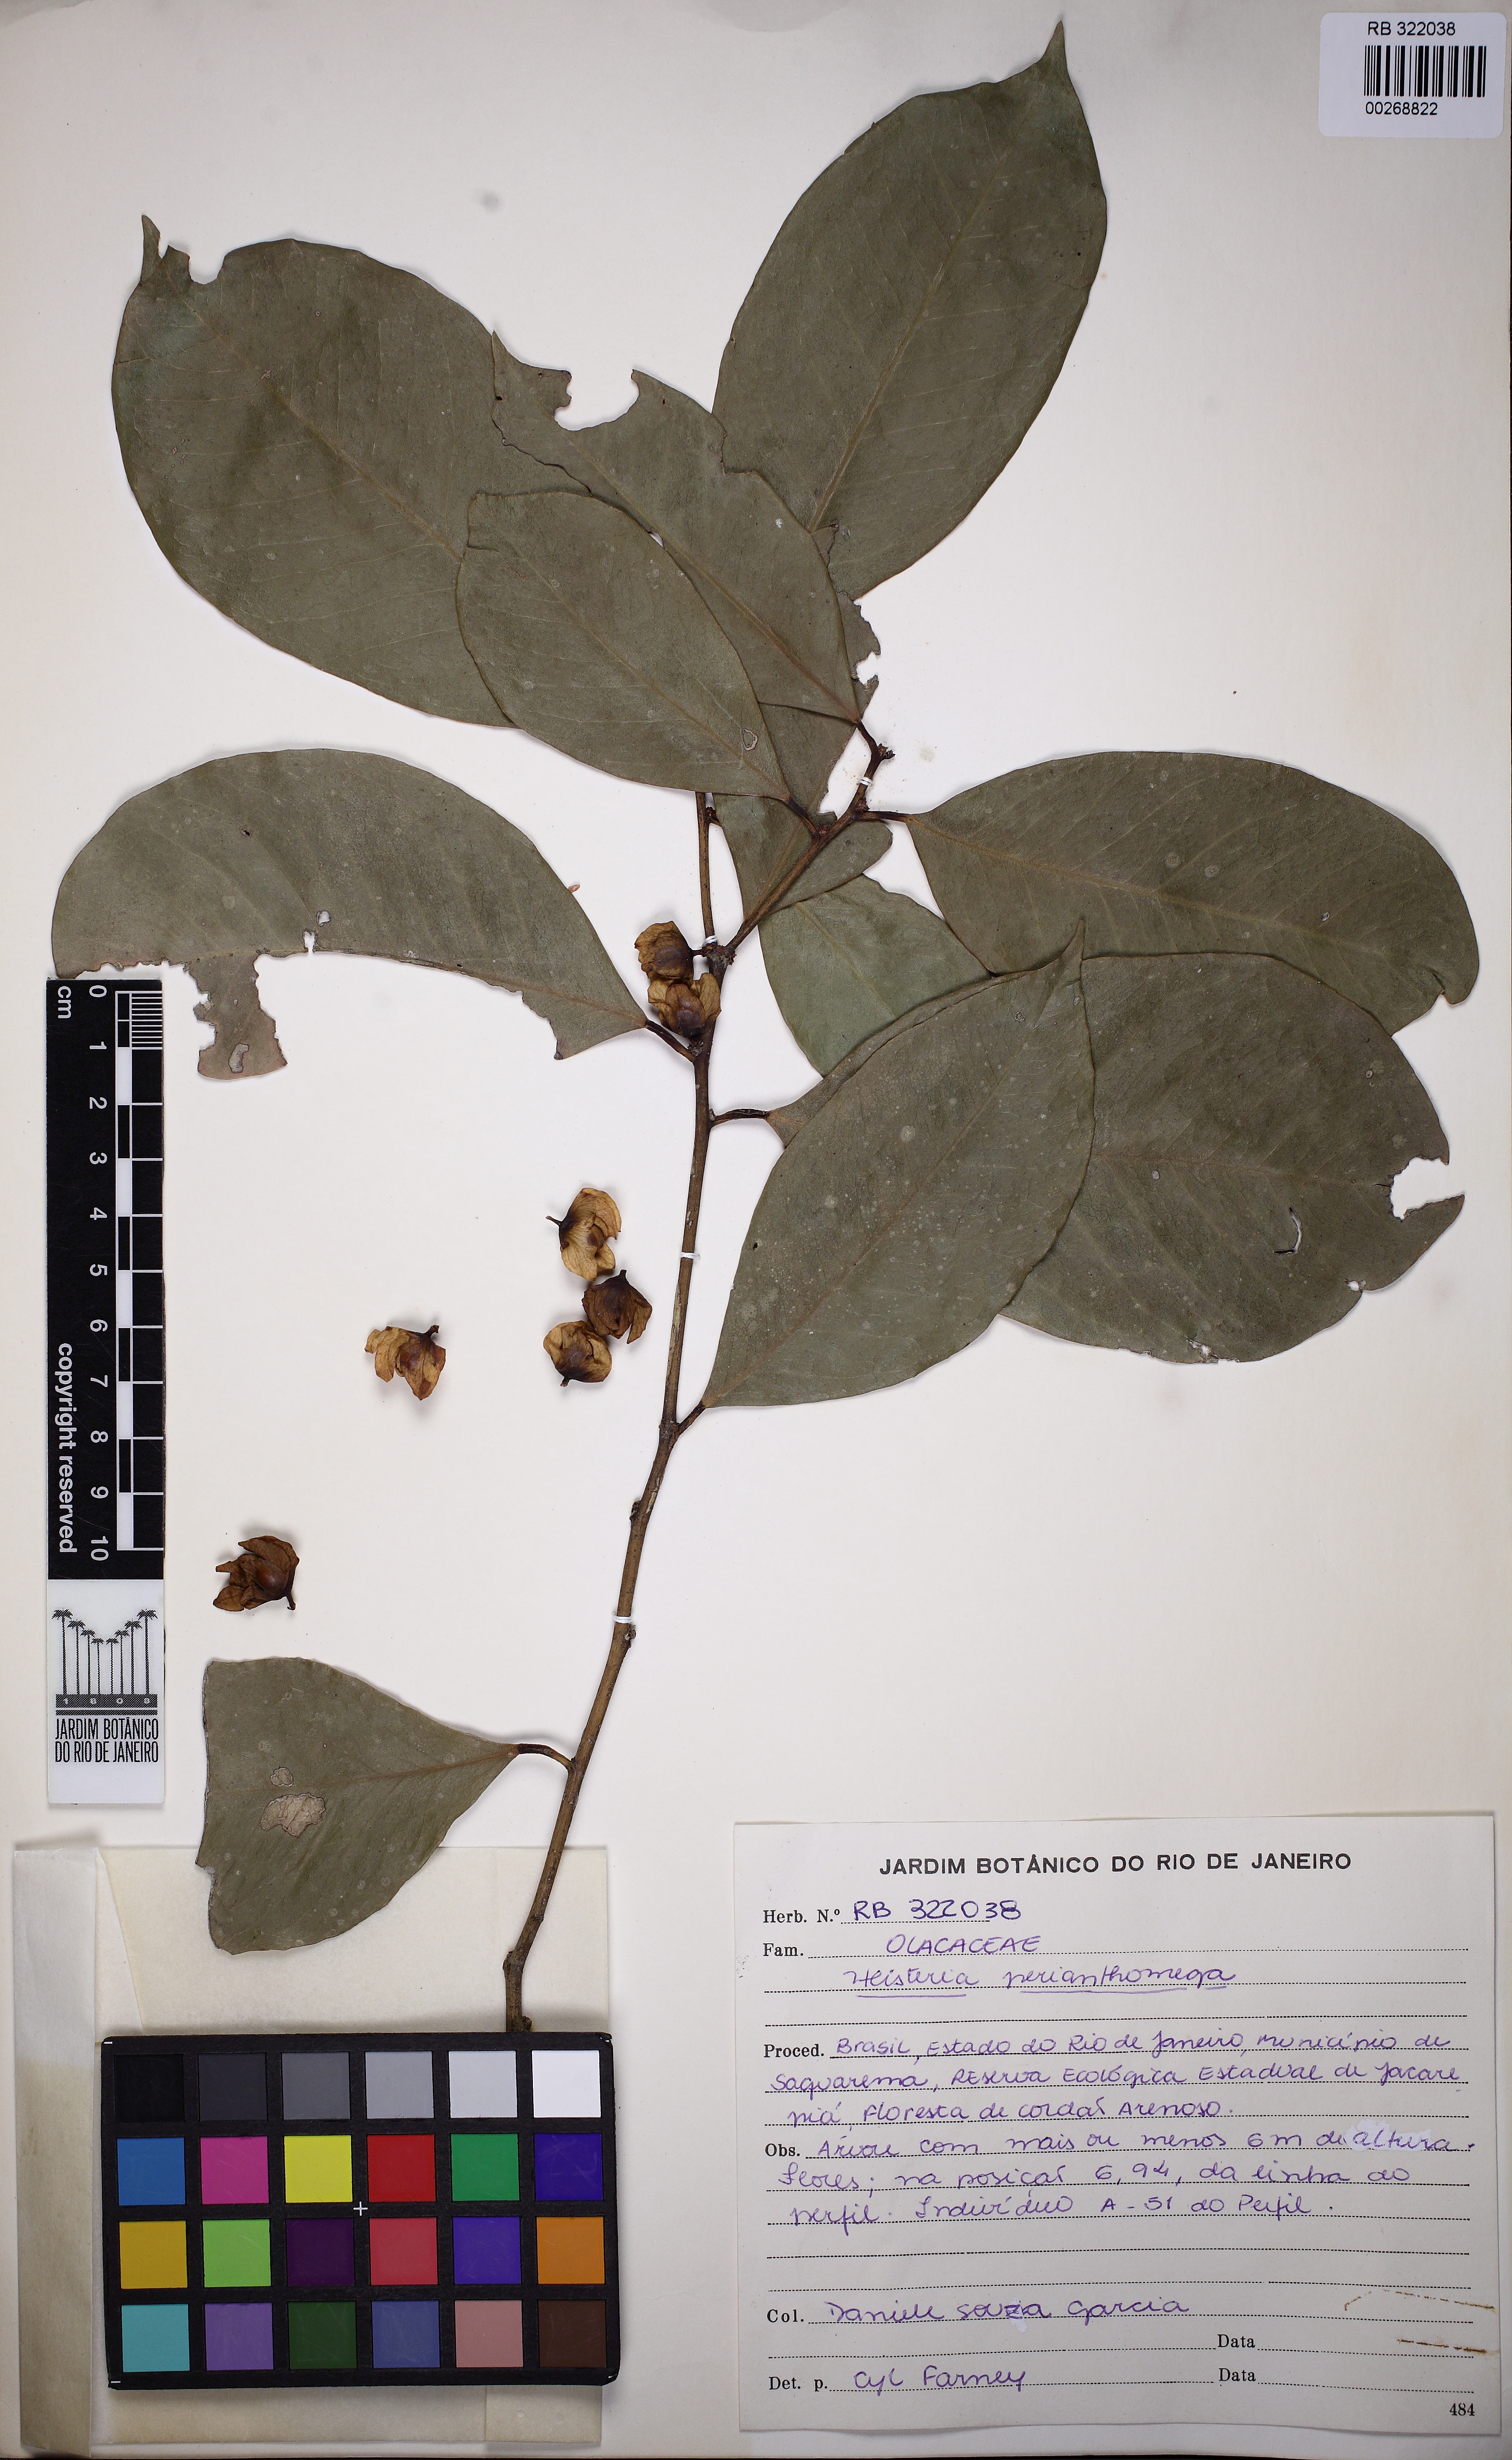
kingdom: Plantae
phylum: Tracheophyta
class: Magnoliopsida
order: Santalales
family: Erythropalaceae
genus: Heisteria
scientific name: Heisteria perianthomega
